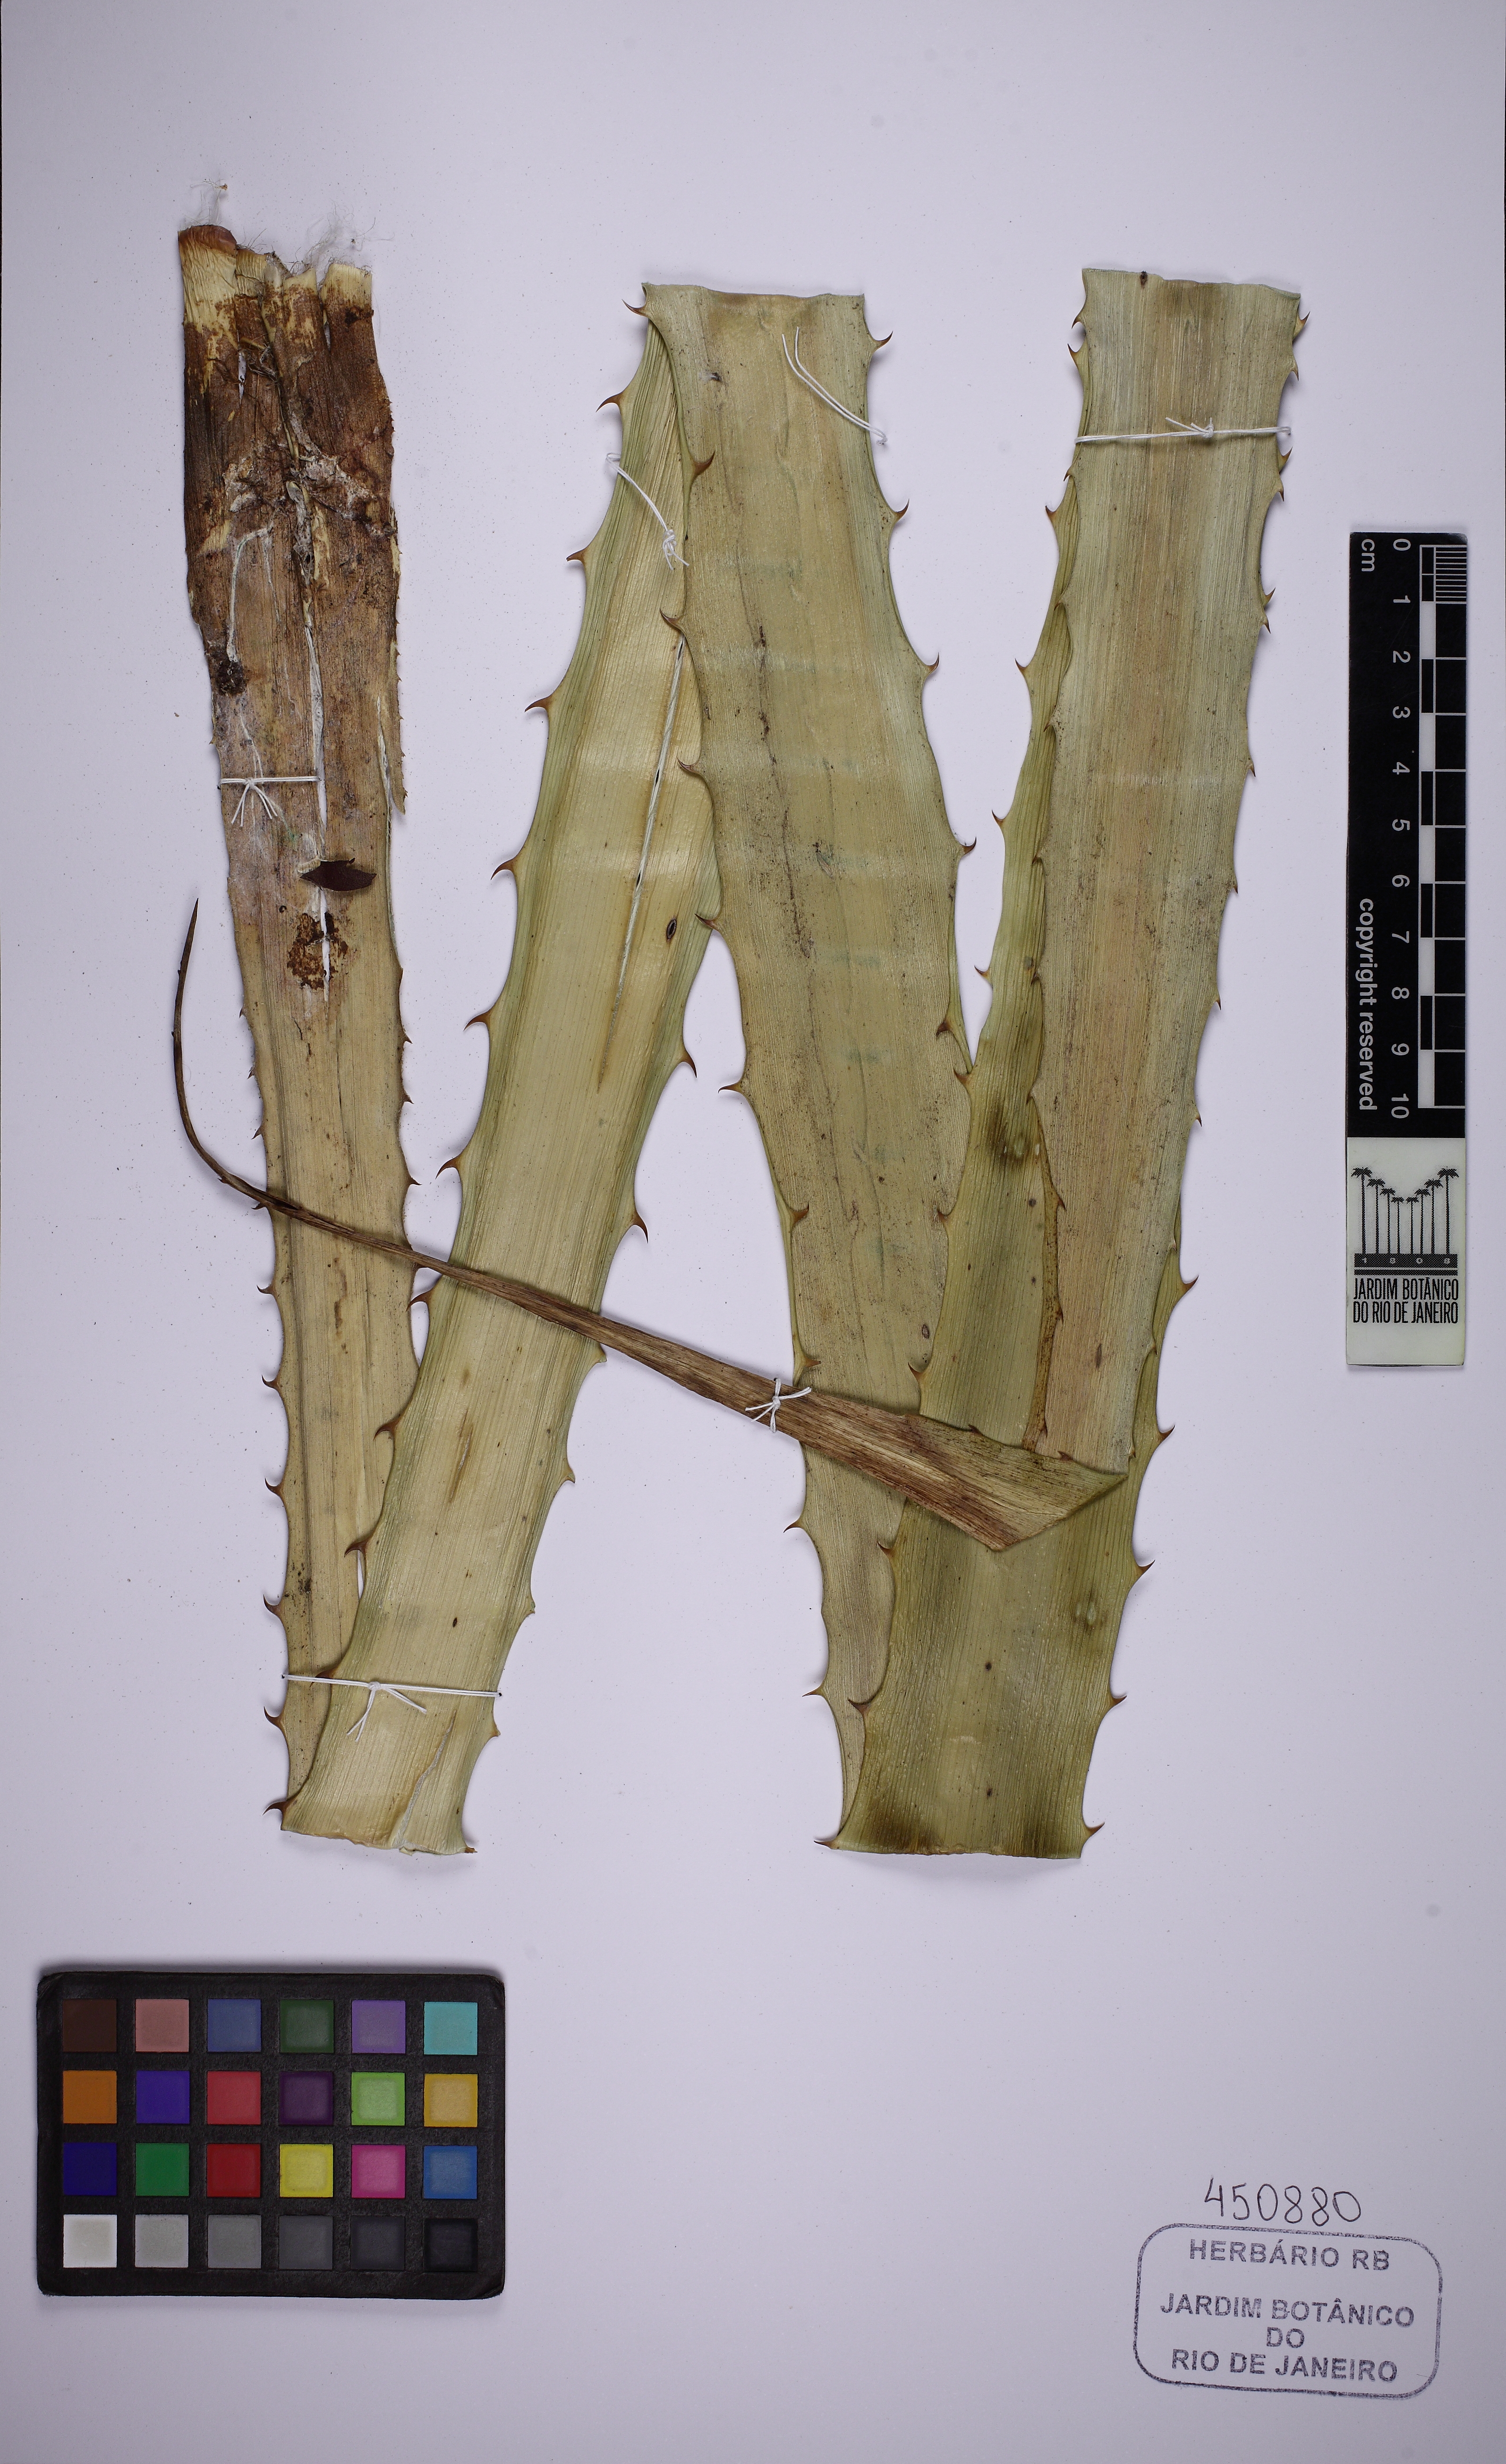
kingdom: Plantae
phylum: Tracheophyta
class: Liliopsida
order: Poales
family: Bromeliaceae
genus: Ananas
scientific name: Ananas comosus
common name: Pineapple
